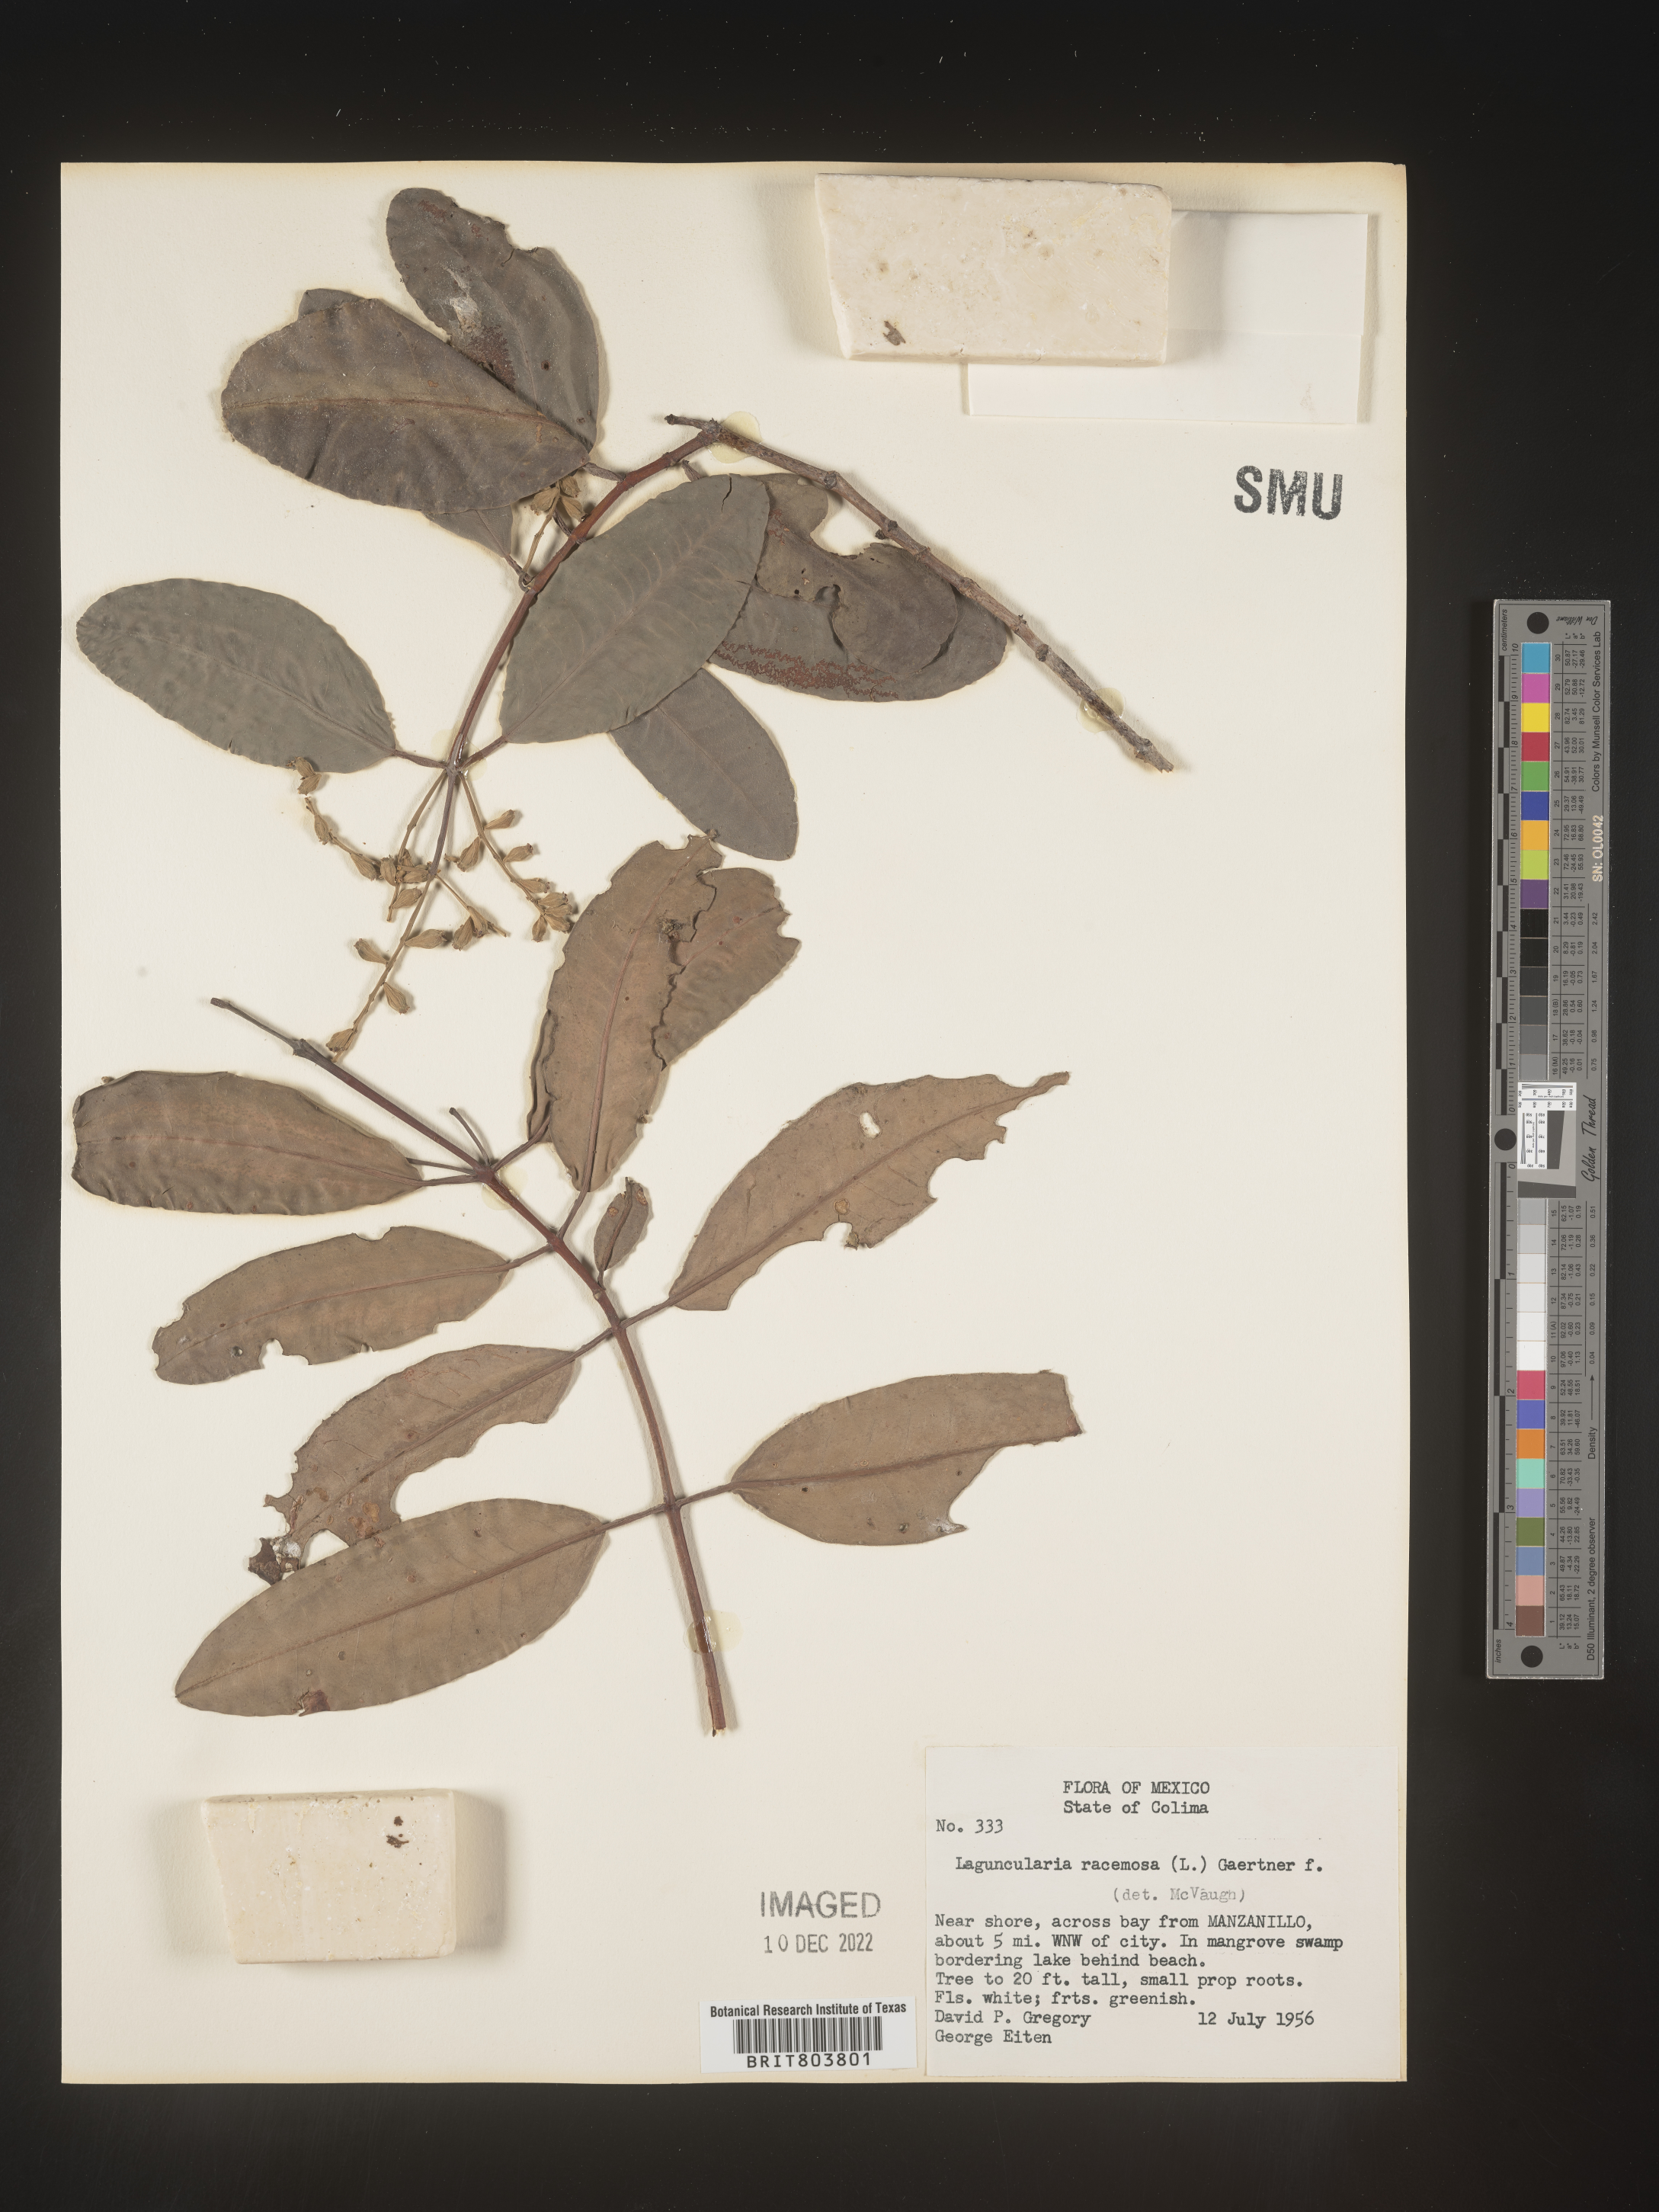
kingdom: Plantae
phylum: Tracheophyta
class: Magnoliopsida
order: Myrtales
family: Combretaceae
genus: Laguncularia
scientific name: Laguncularia
